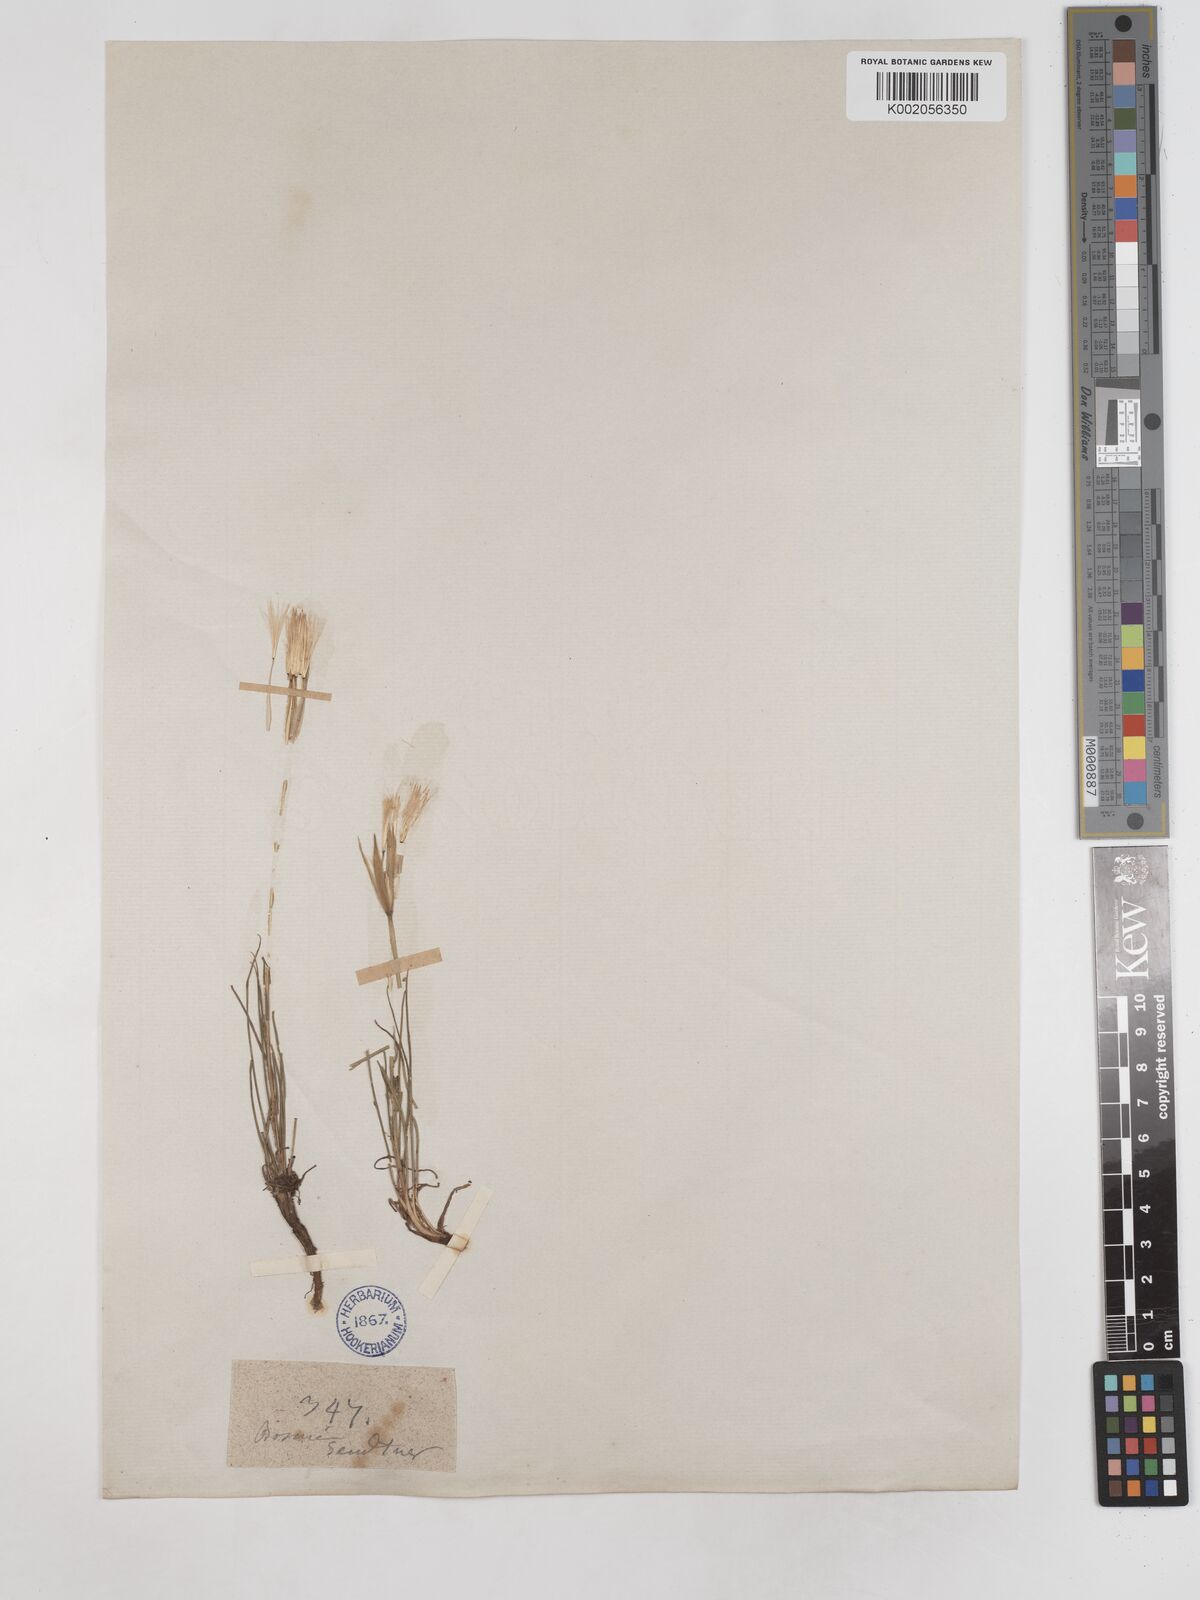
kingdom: Plantae
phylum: Tracheophyta
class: Magnoliopsida
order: Asterales
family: Asteraceae
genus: Tragopogon
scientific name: Tragopogon balcanicus
